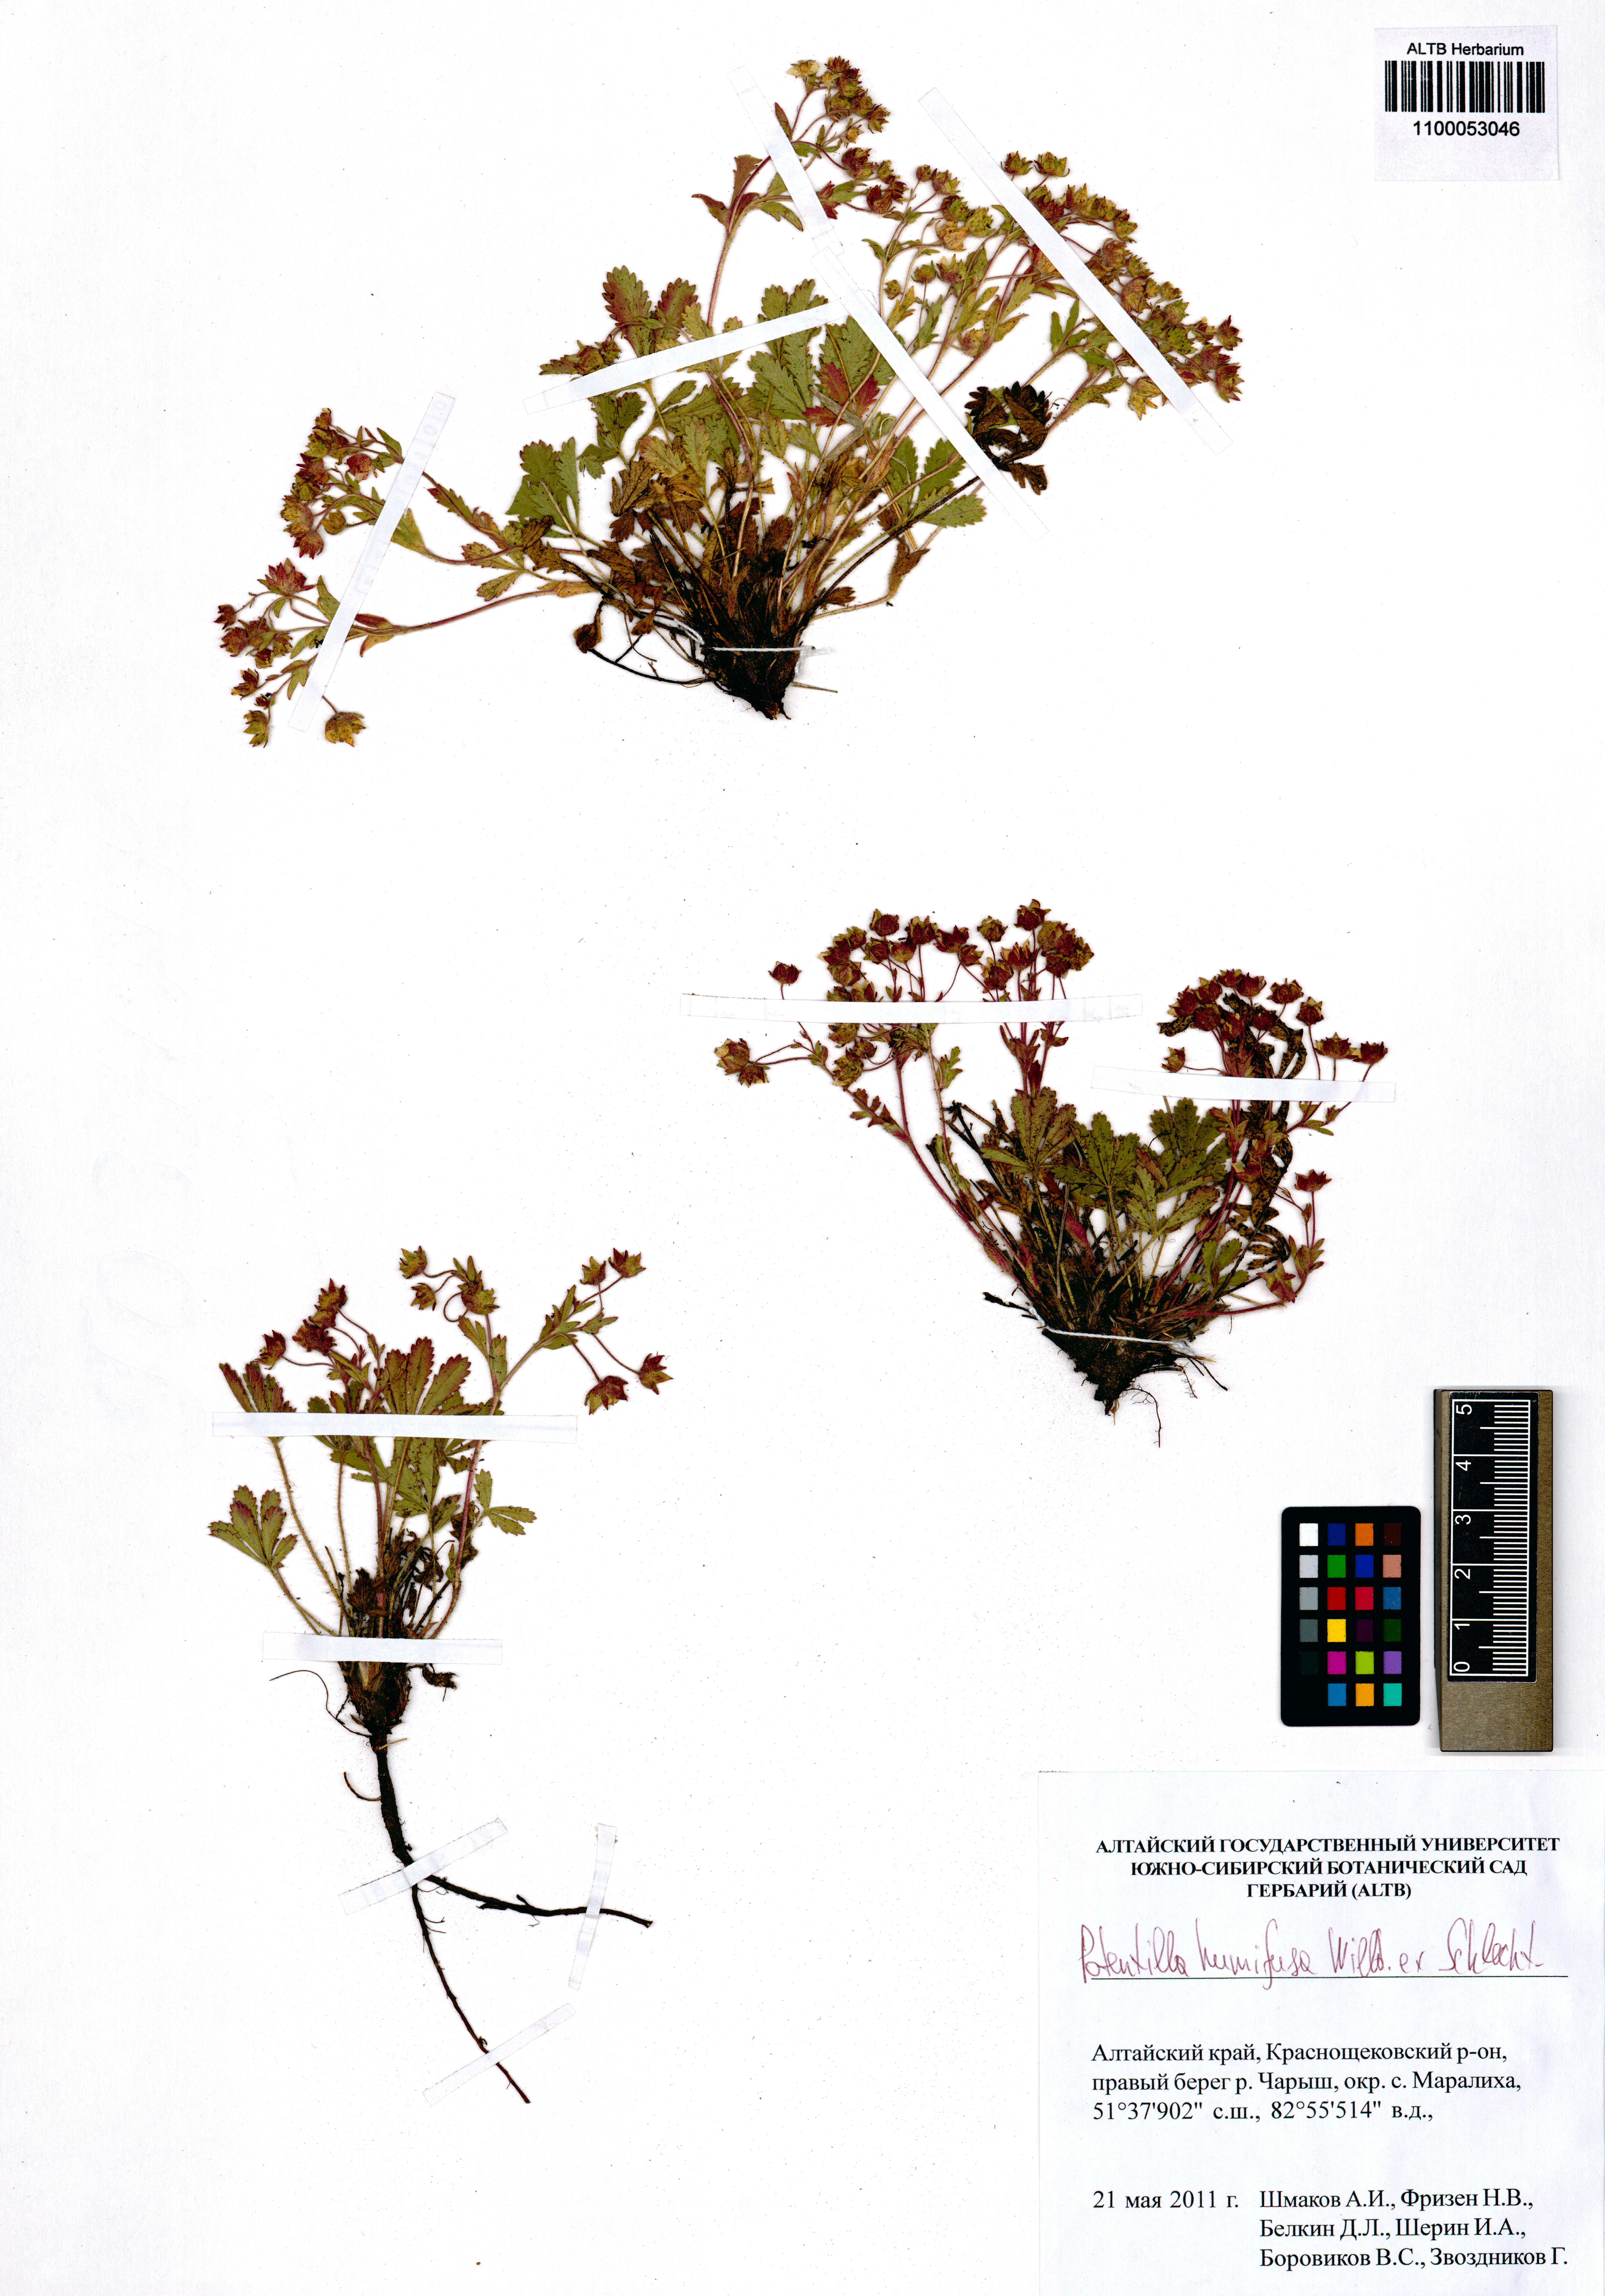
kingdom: Plantae
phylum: Tracheophyta
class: Magnoliopsida
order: Rosales
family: Rosaceae
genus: Potentilla
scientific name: Potentilla humifusa
